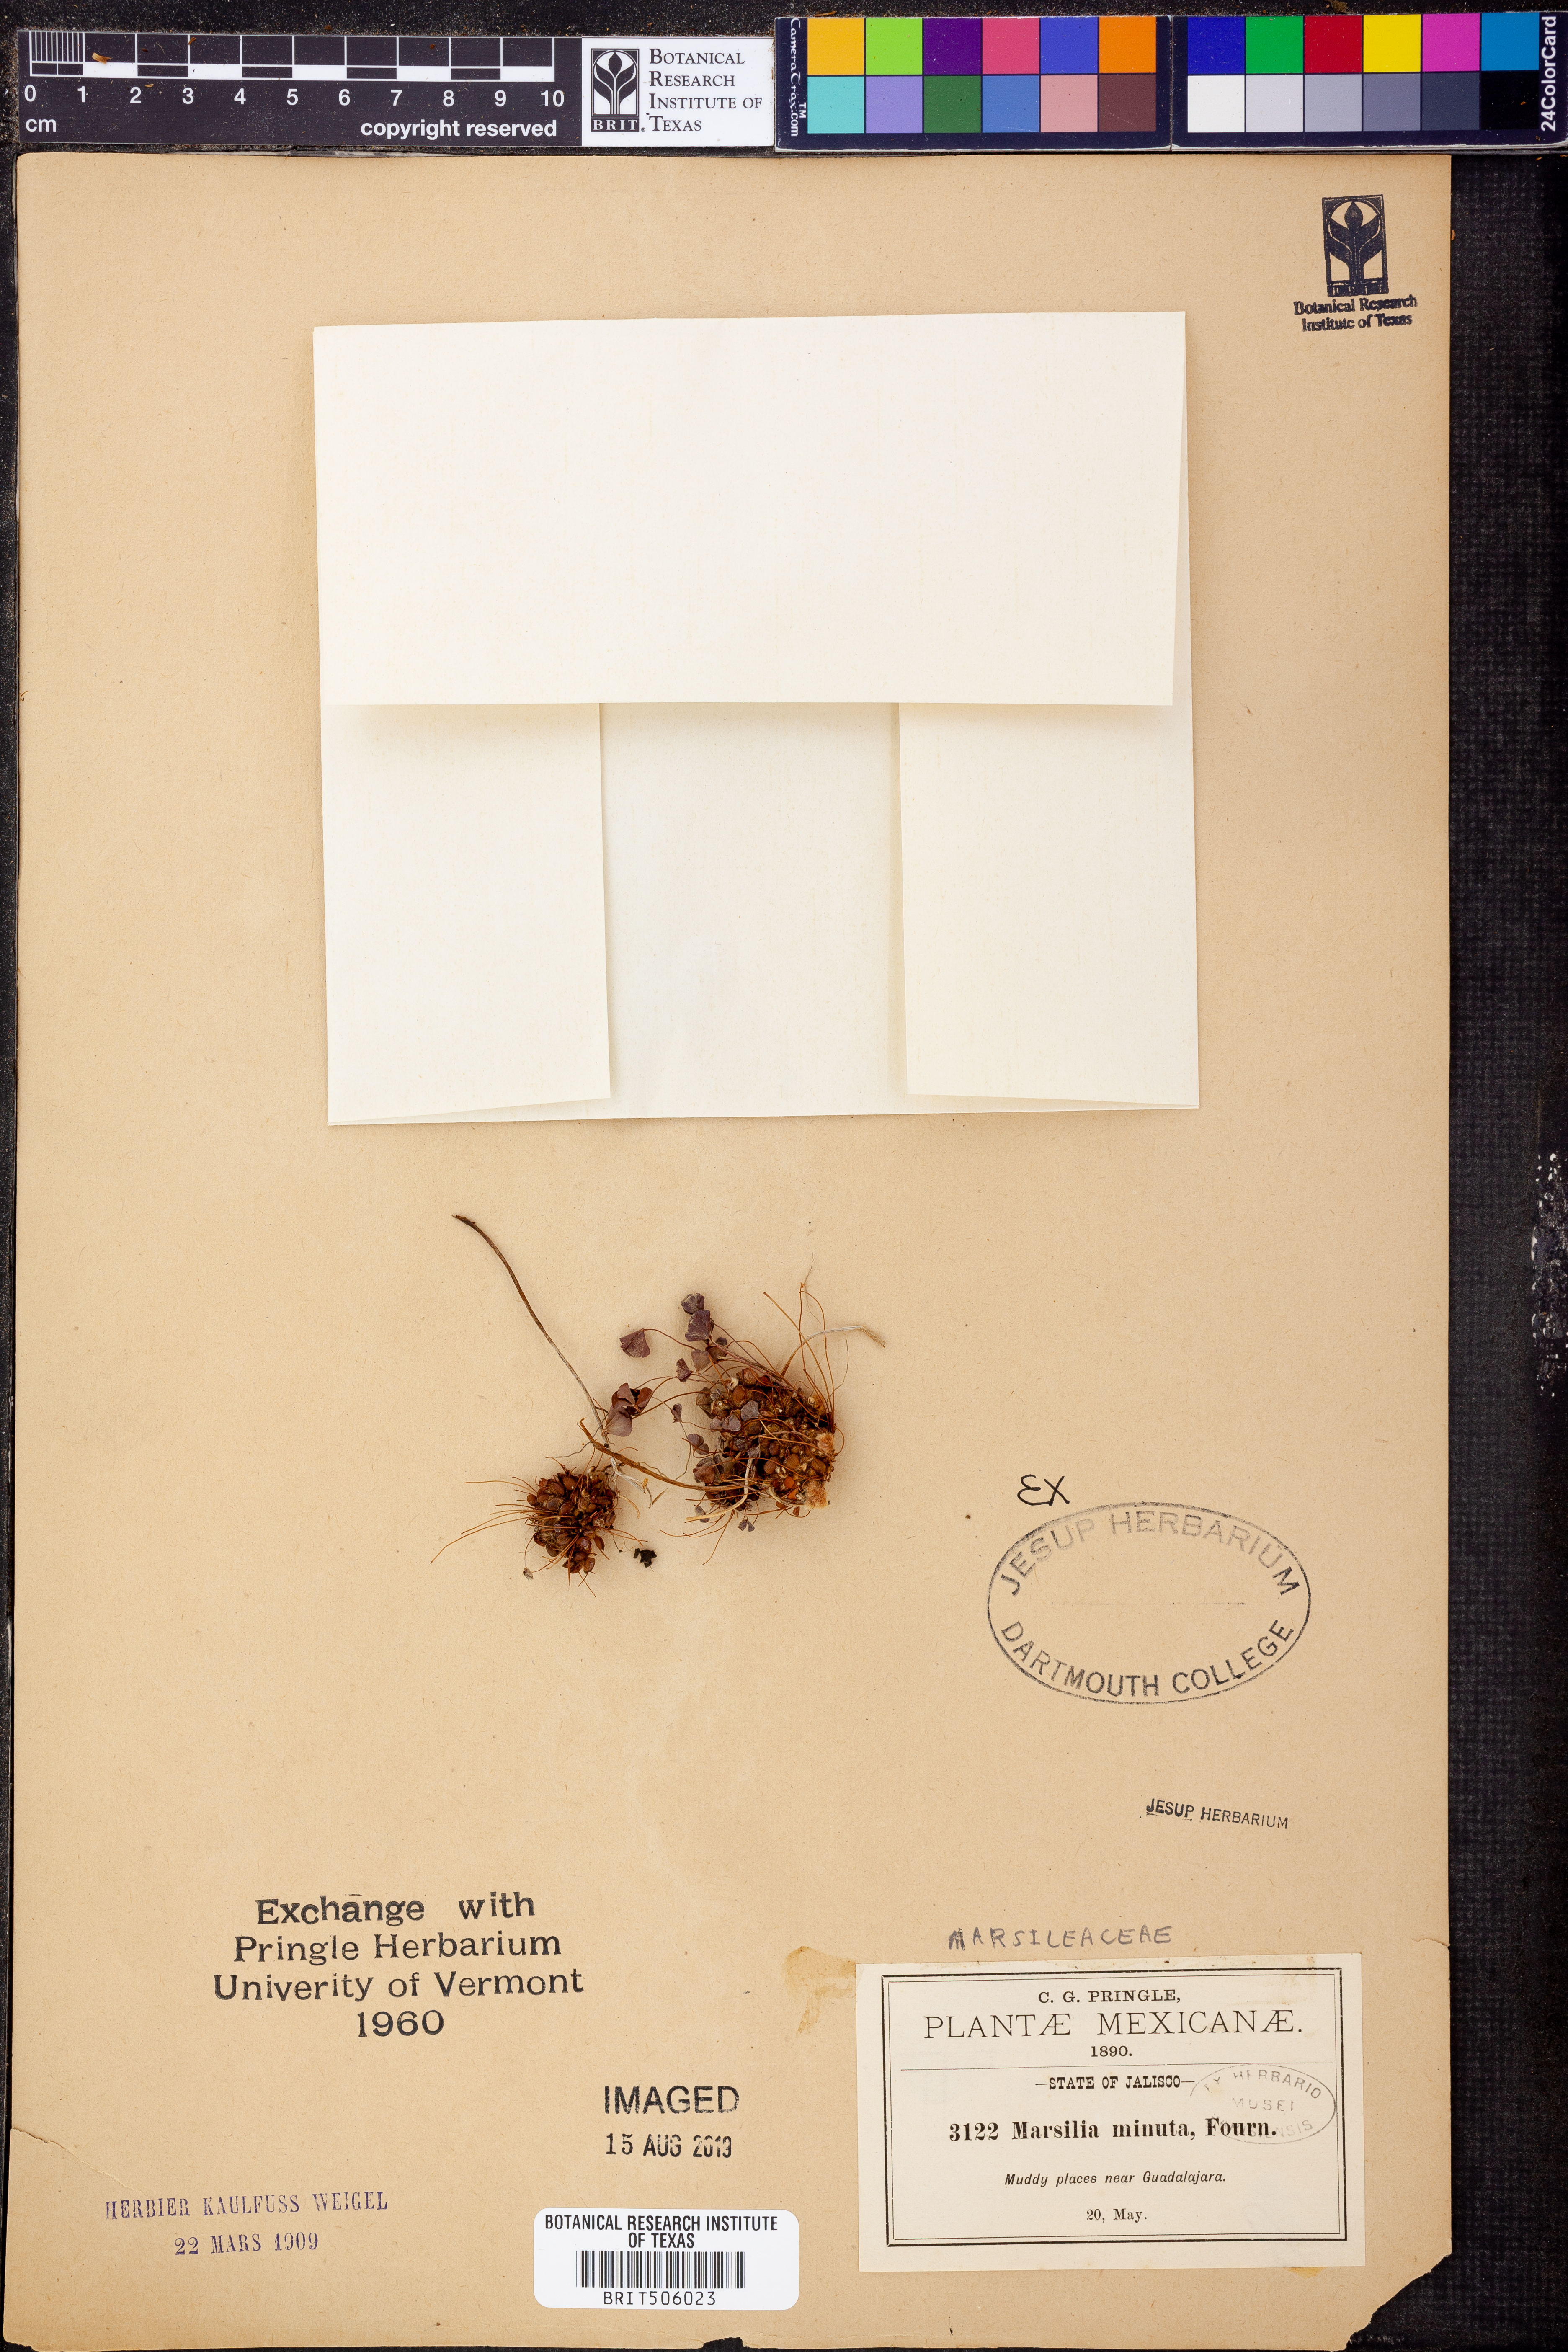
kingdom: Plantae
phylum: Tracheophyta
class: Polypodiopsida
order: Salviniales
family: Marsileaceae
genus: Marsilea
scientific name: Marsilea vestita
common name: Hooked-pepperwort
